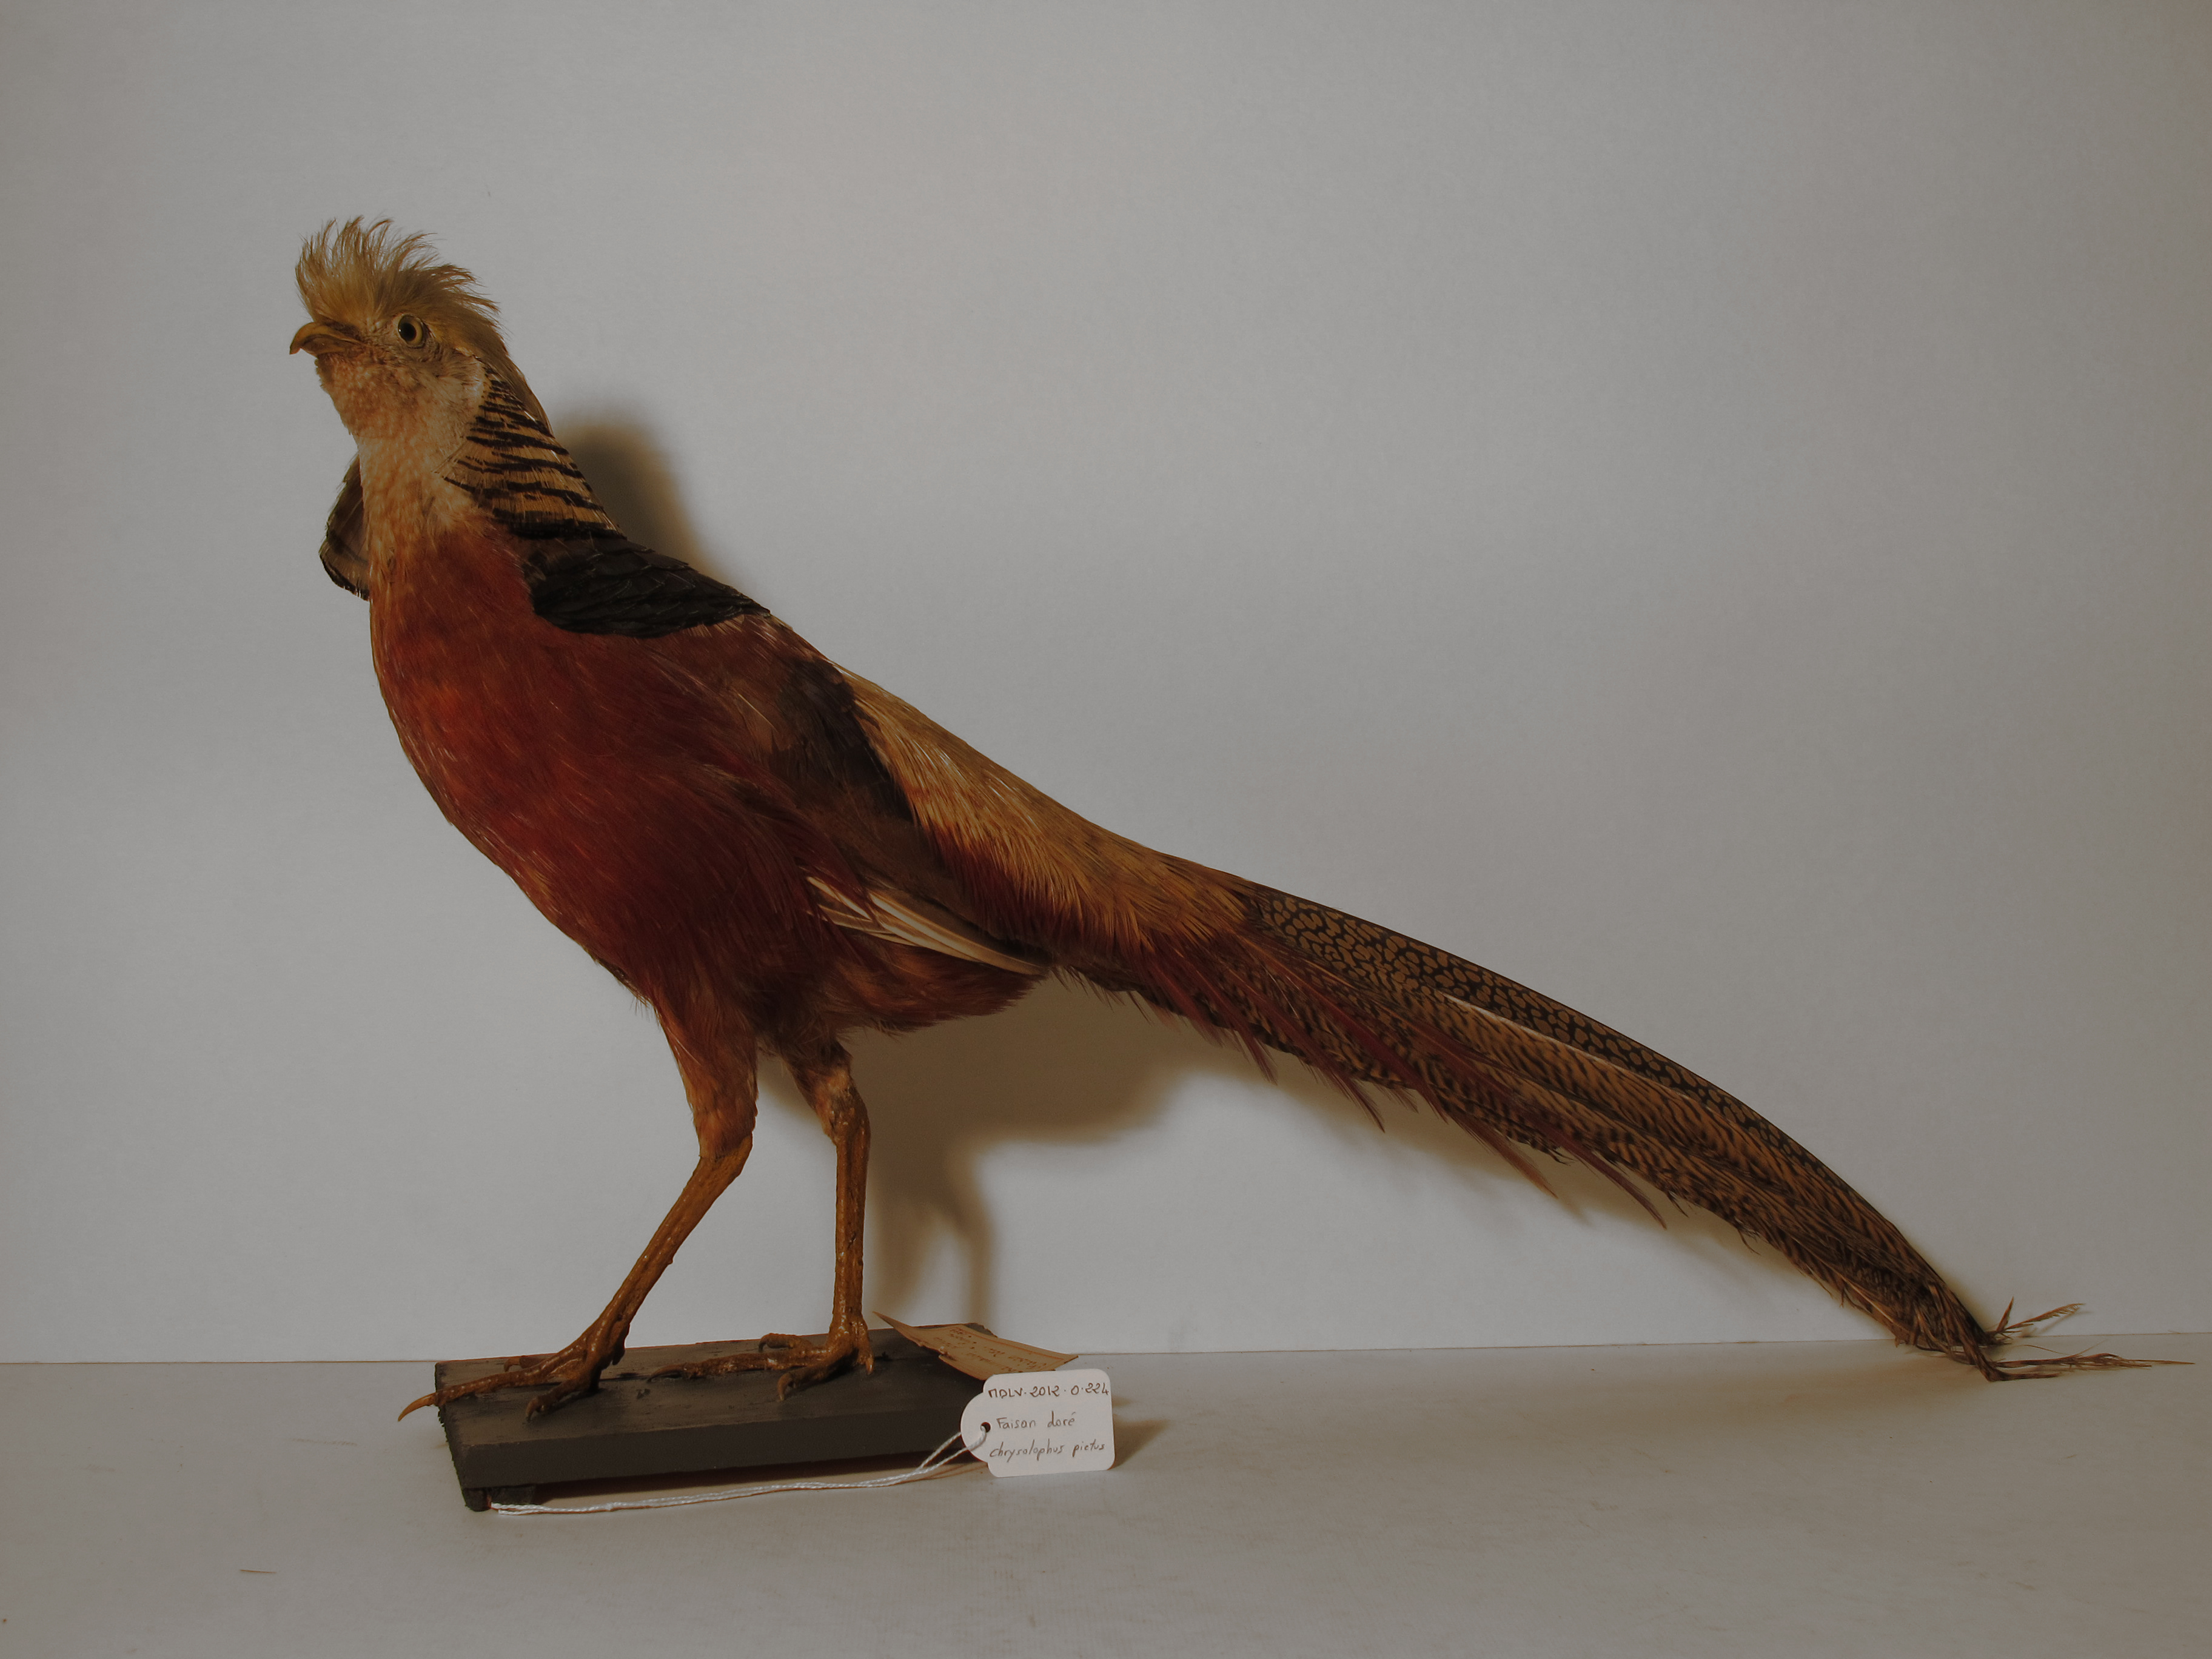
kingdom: Animalia
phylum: Chordata
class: Aves
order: Galliformes
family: Phasianidae
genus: Chrysolophus
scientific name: Chrysolophus pictus
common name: Golden Pheasant
